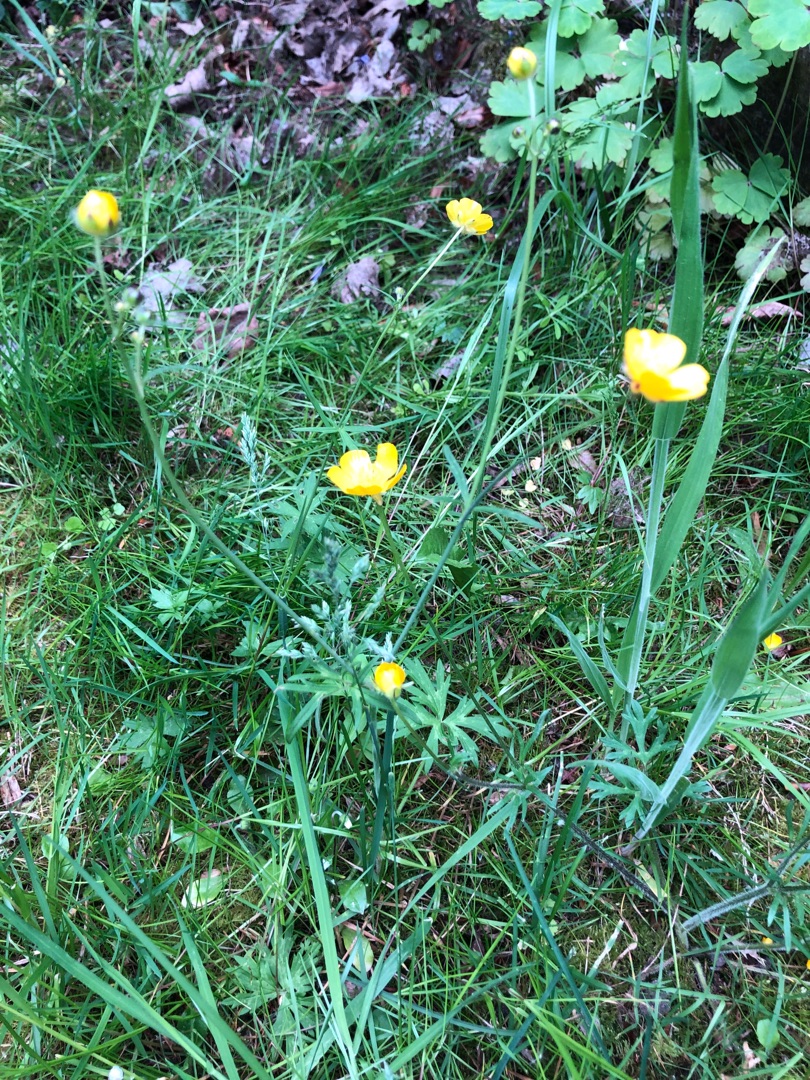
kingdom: Plantae
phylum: Tracheophyta
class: Magnoliopsida
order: Ranunculales
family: Ranunculaceae
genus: Ranunculus
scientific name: Ranunculus acris
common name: Bidende ranunkel
